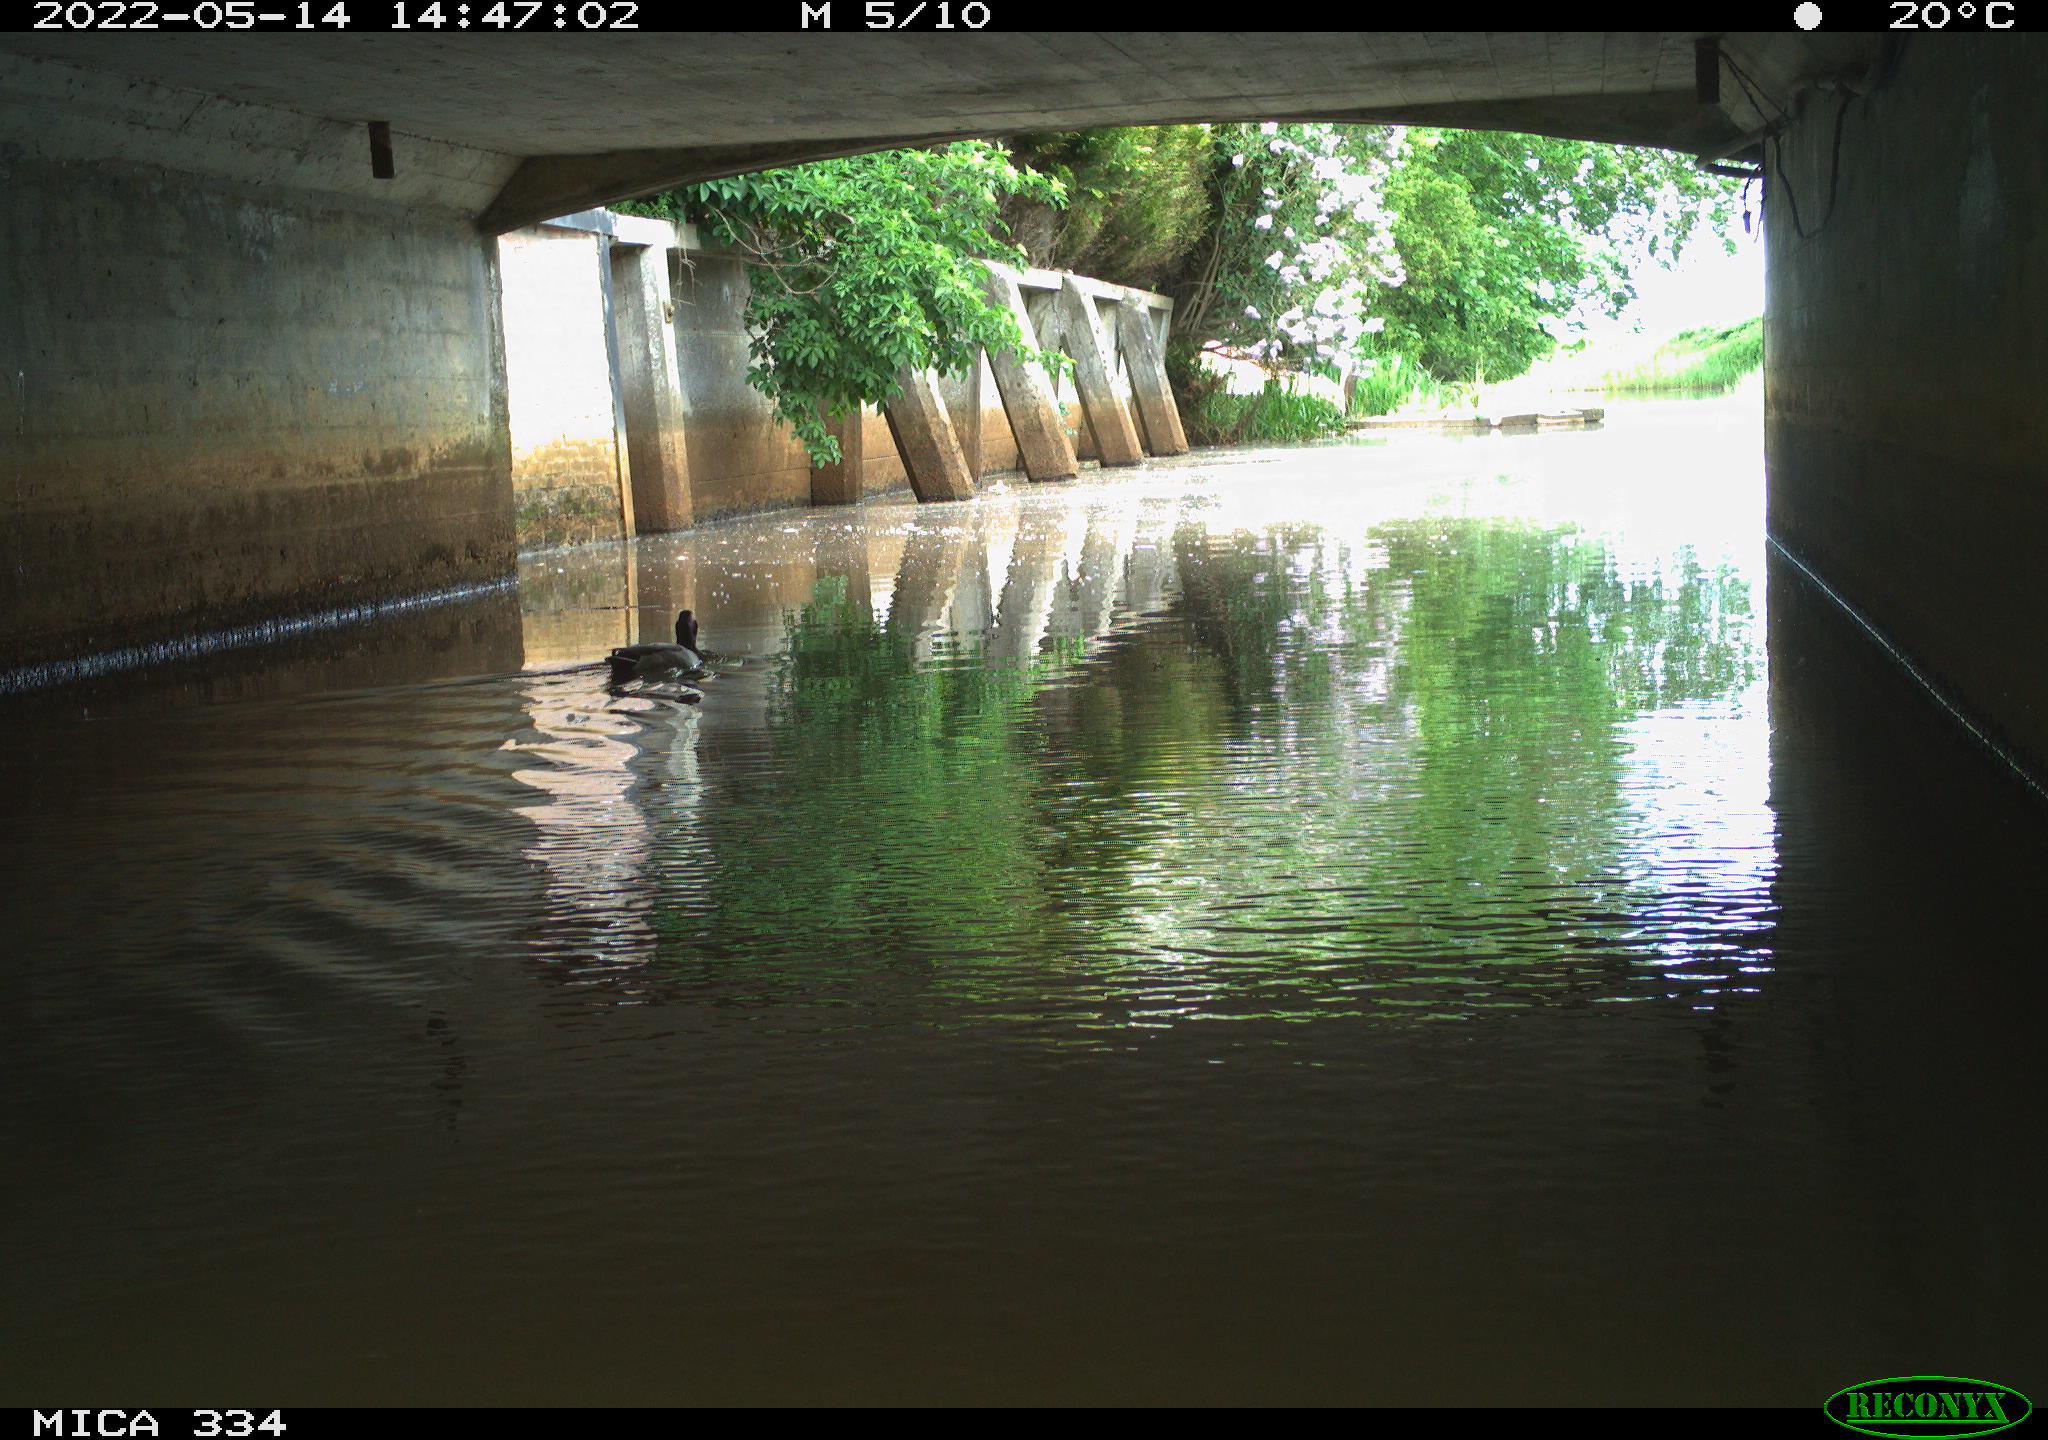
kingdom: Animalia
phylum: Chordata
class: Aves
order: Anseriformes
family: Anatidae
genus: Anas
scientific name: Anas platyrhynchos
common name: Mallard
